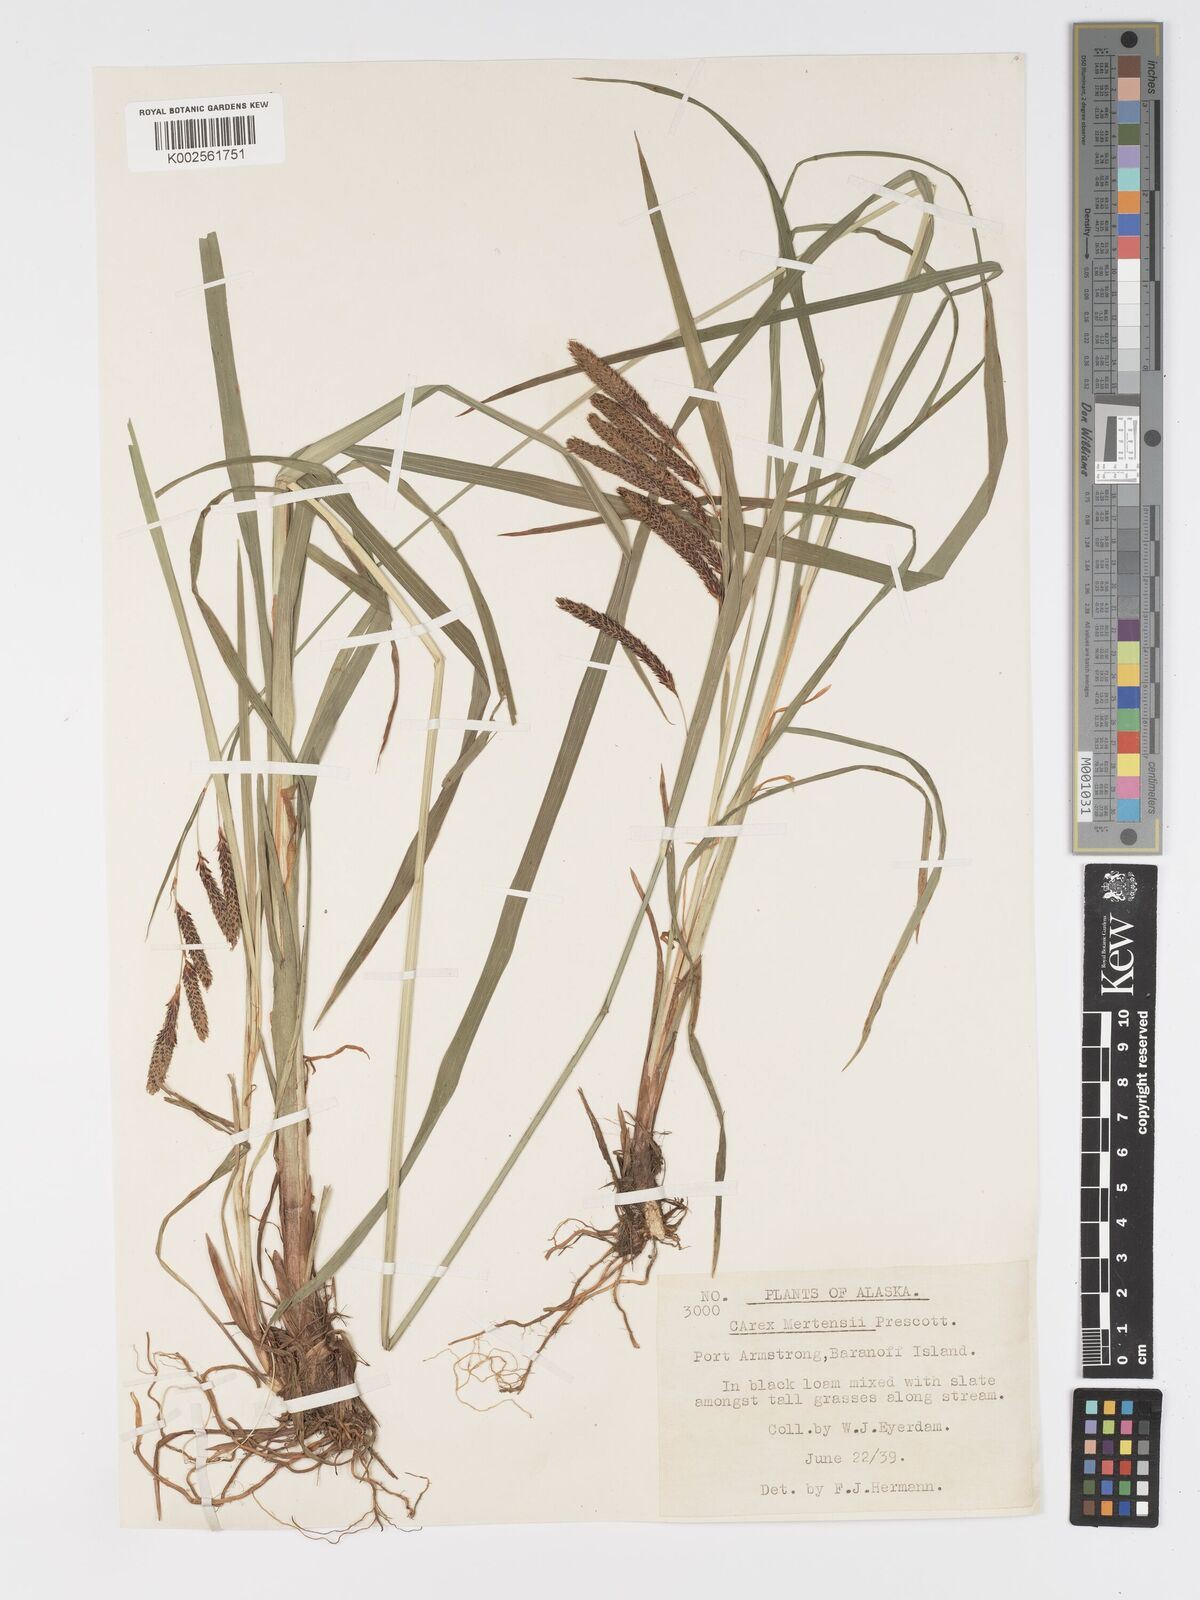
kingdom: Plantae
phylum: Tracheophyta
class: Liliopsida
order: Poales
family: Cyperaceae
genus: Carex
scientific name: Carex mertensii
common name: Mertens' sedge
